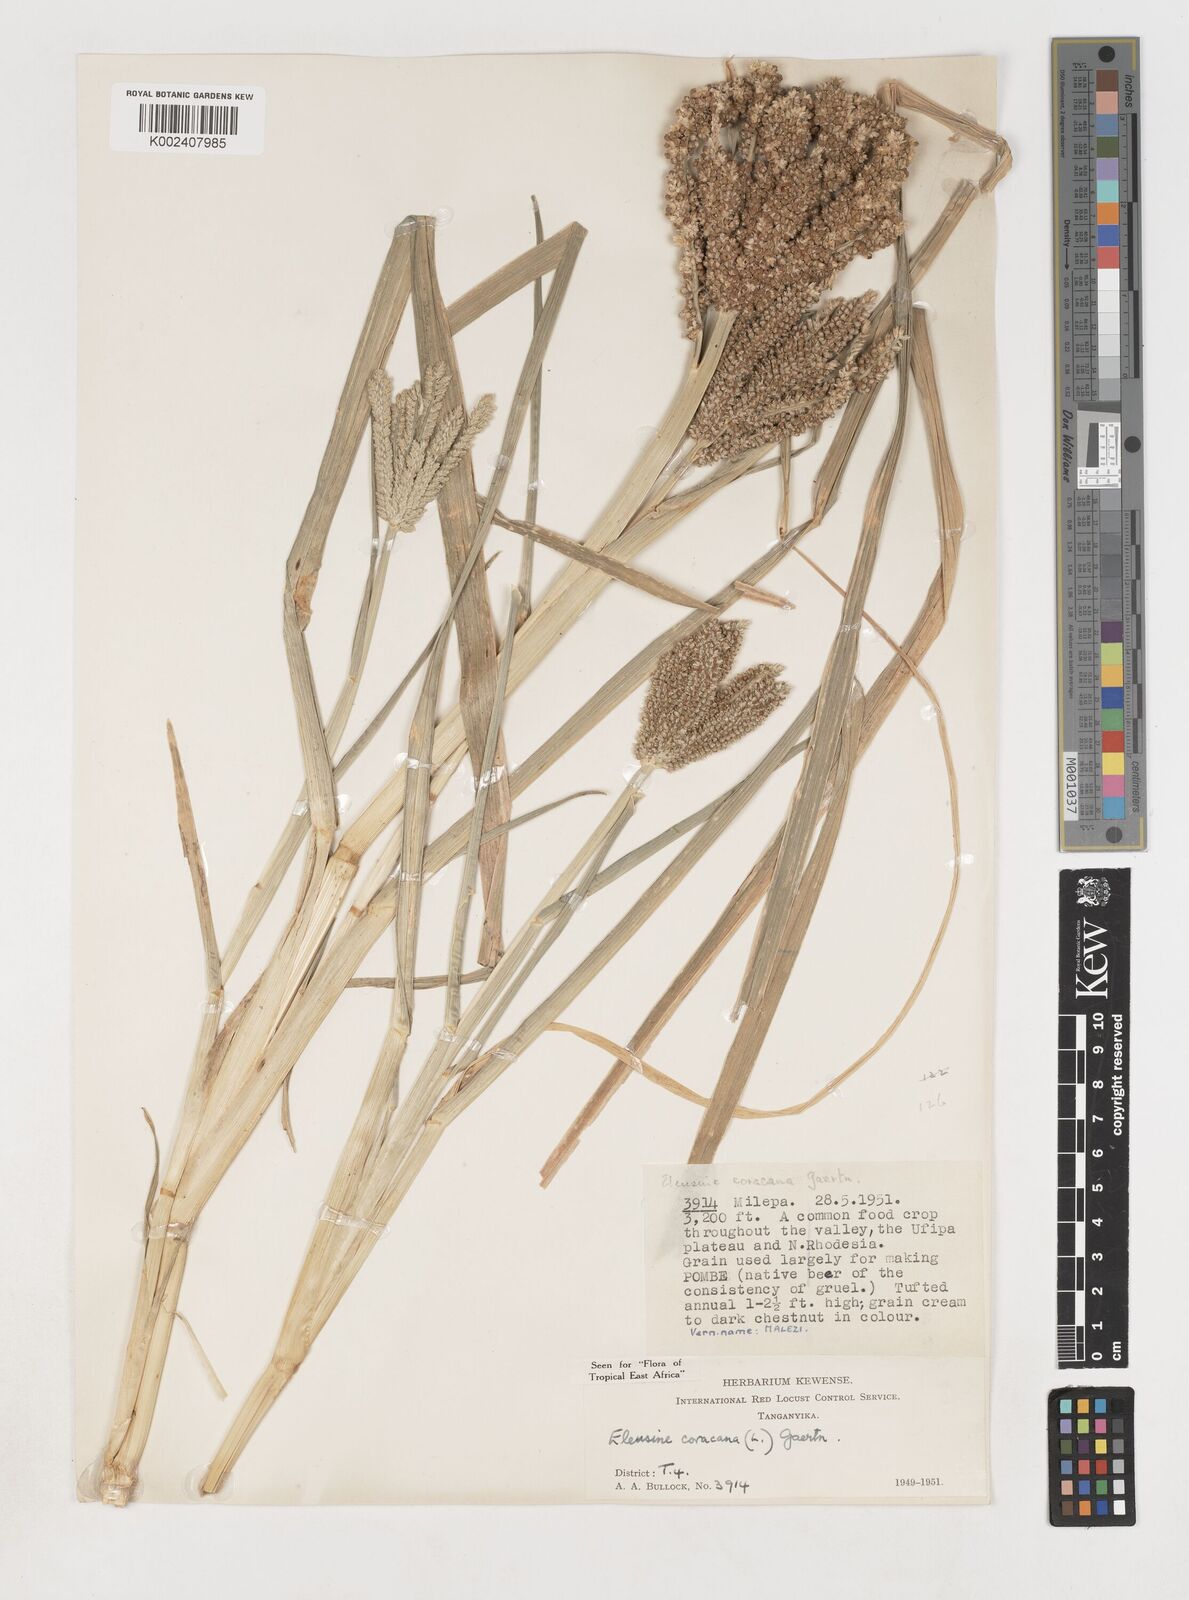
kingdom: Plantae
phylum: Tracheophyta
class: Liliopsida
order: Poales
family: Poaceae
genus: Eleusine
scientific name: Eleusine coracana
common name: Finger millet
